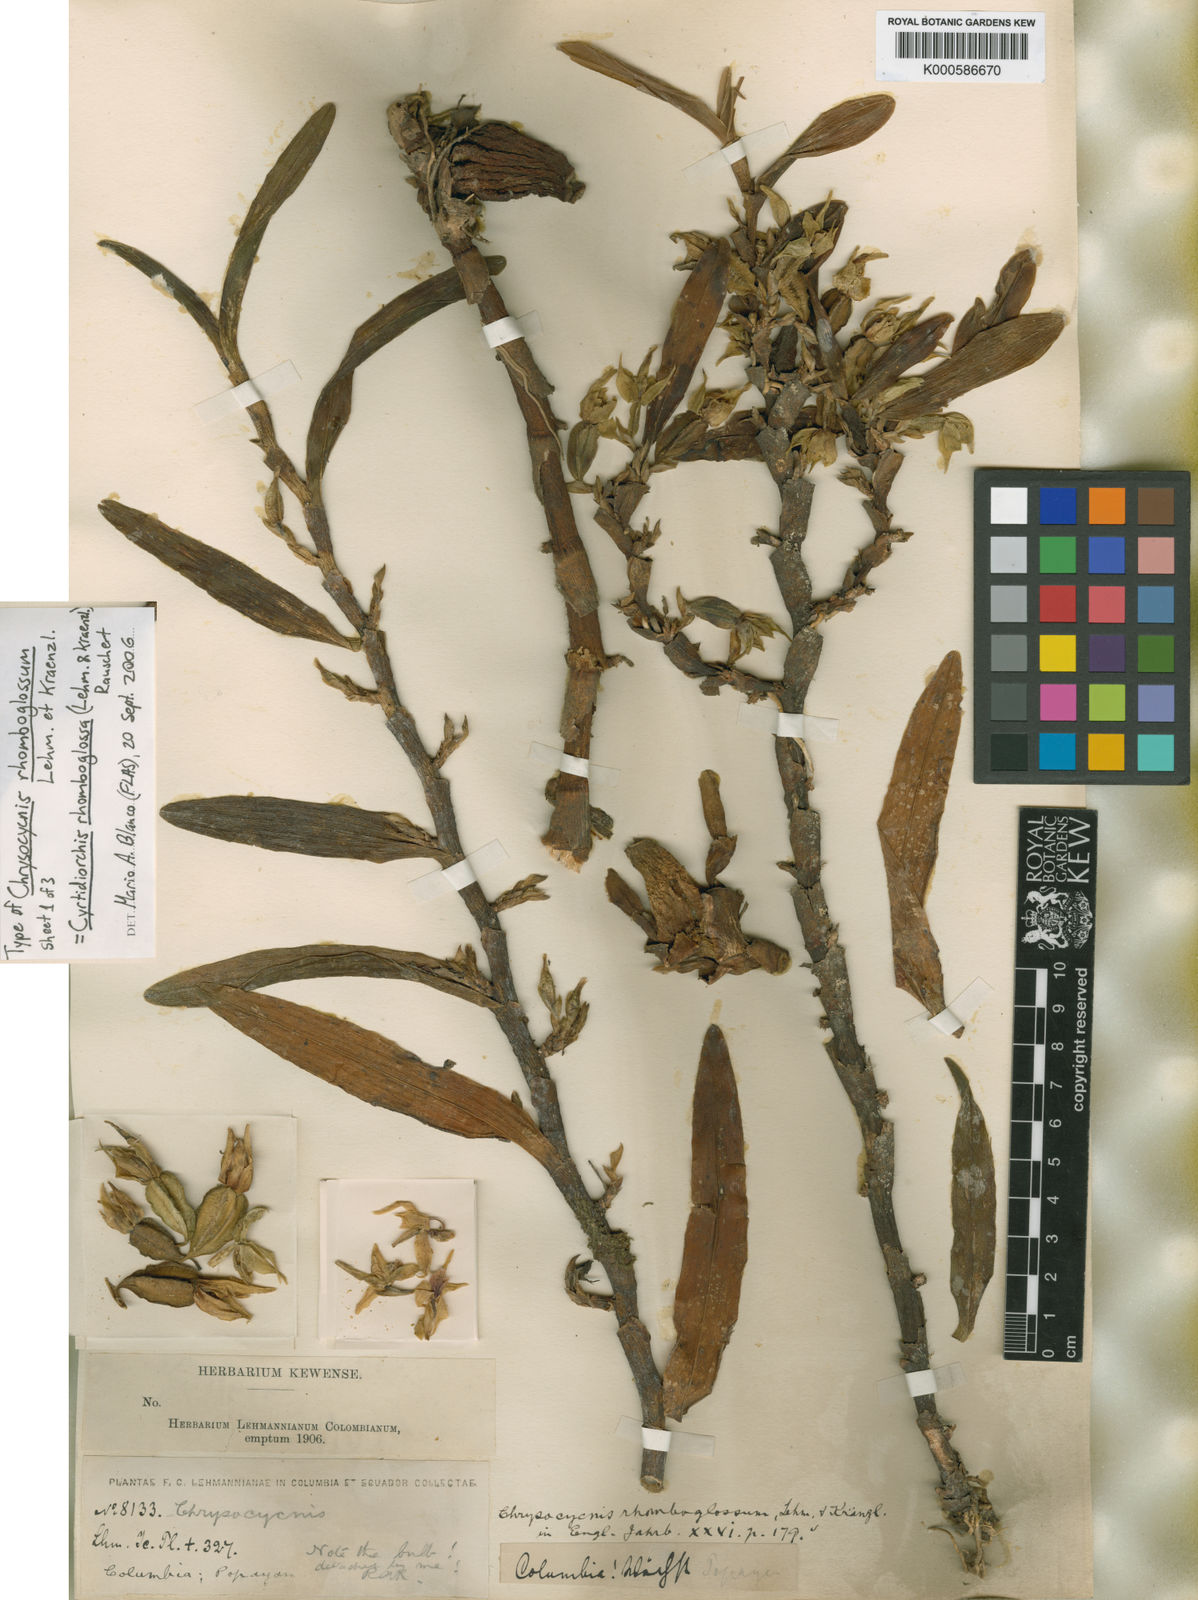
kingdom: Plantae
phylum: Tracheophyta
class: Liliopsida
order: Asparagales
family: Orchidaceae
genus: Maxillaria
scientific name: Maxillaria rhomboglossa
